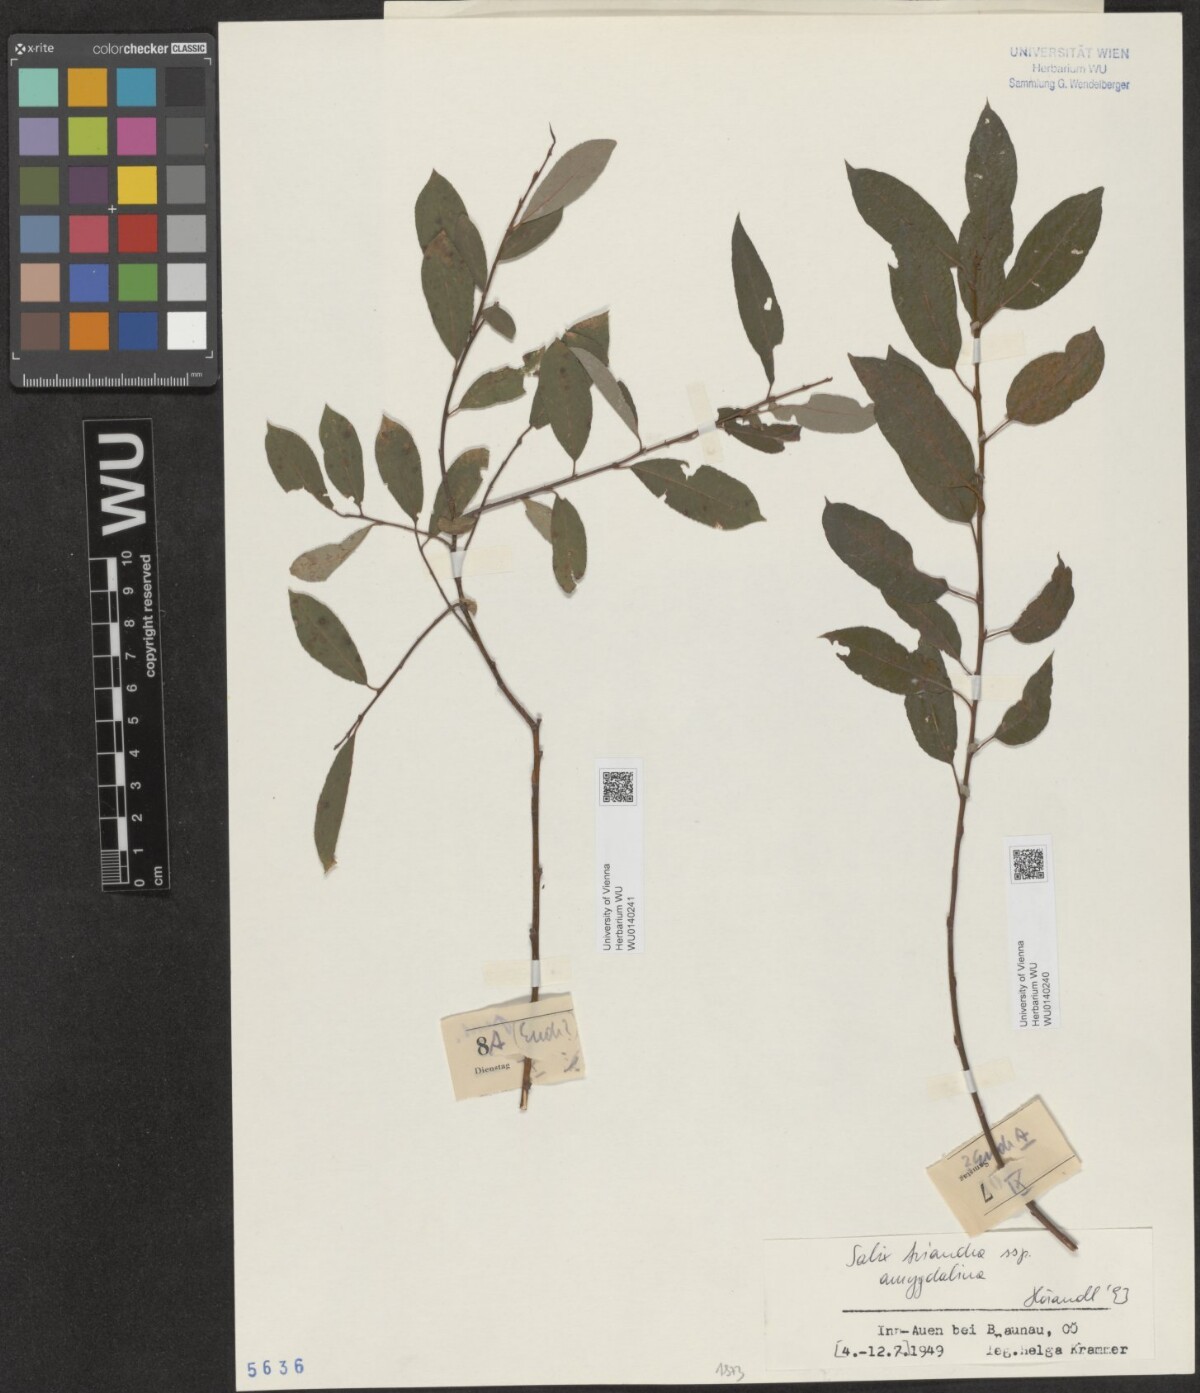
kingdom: Plantae
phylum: Tracheophyta
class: Magnoliopsida
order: Malpighiales
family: Salicaceae
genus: Salix
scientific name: Salix triandra
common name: Almond willow
